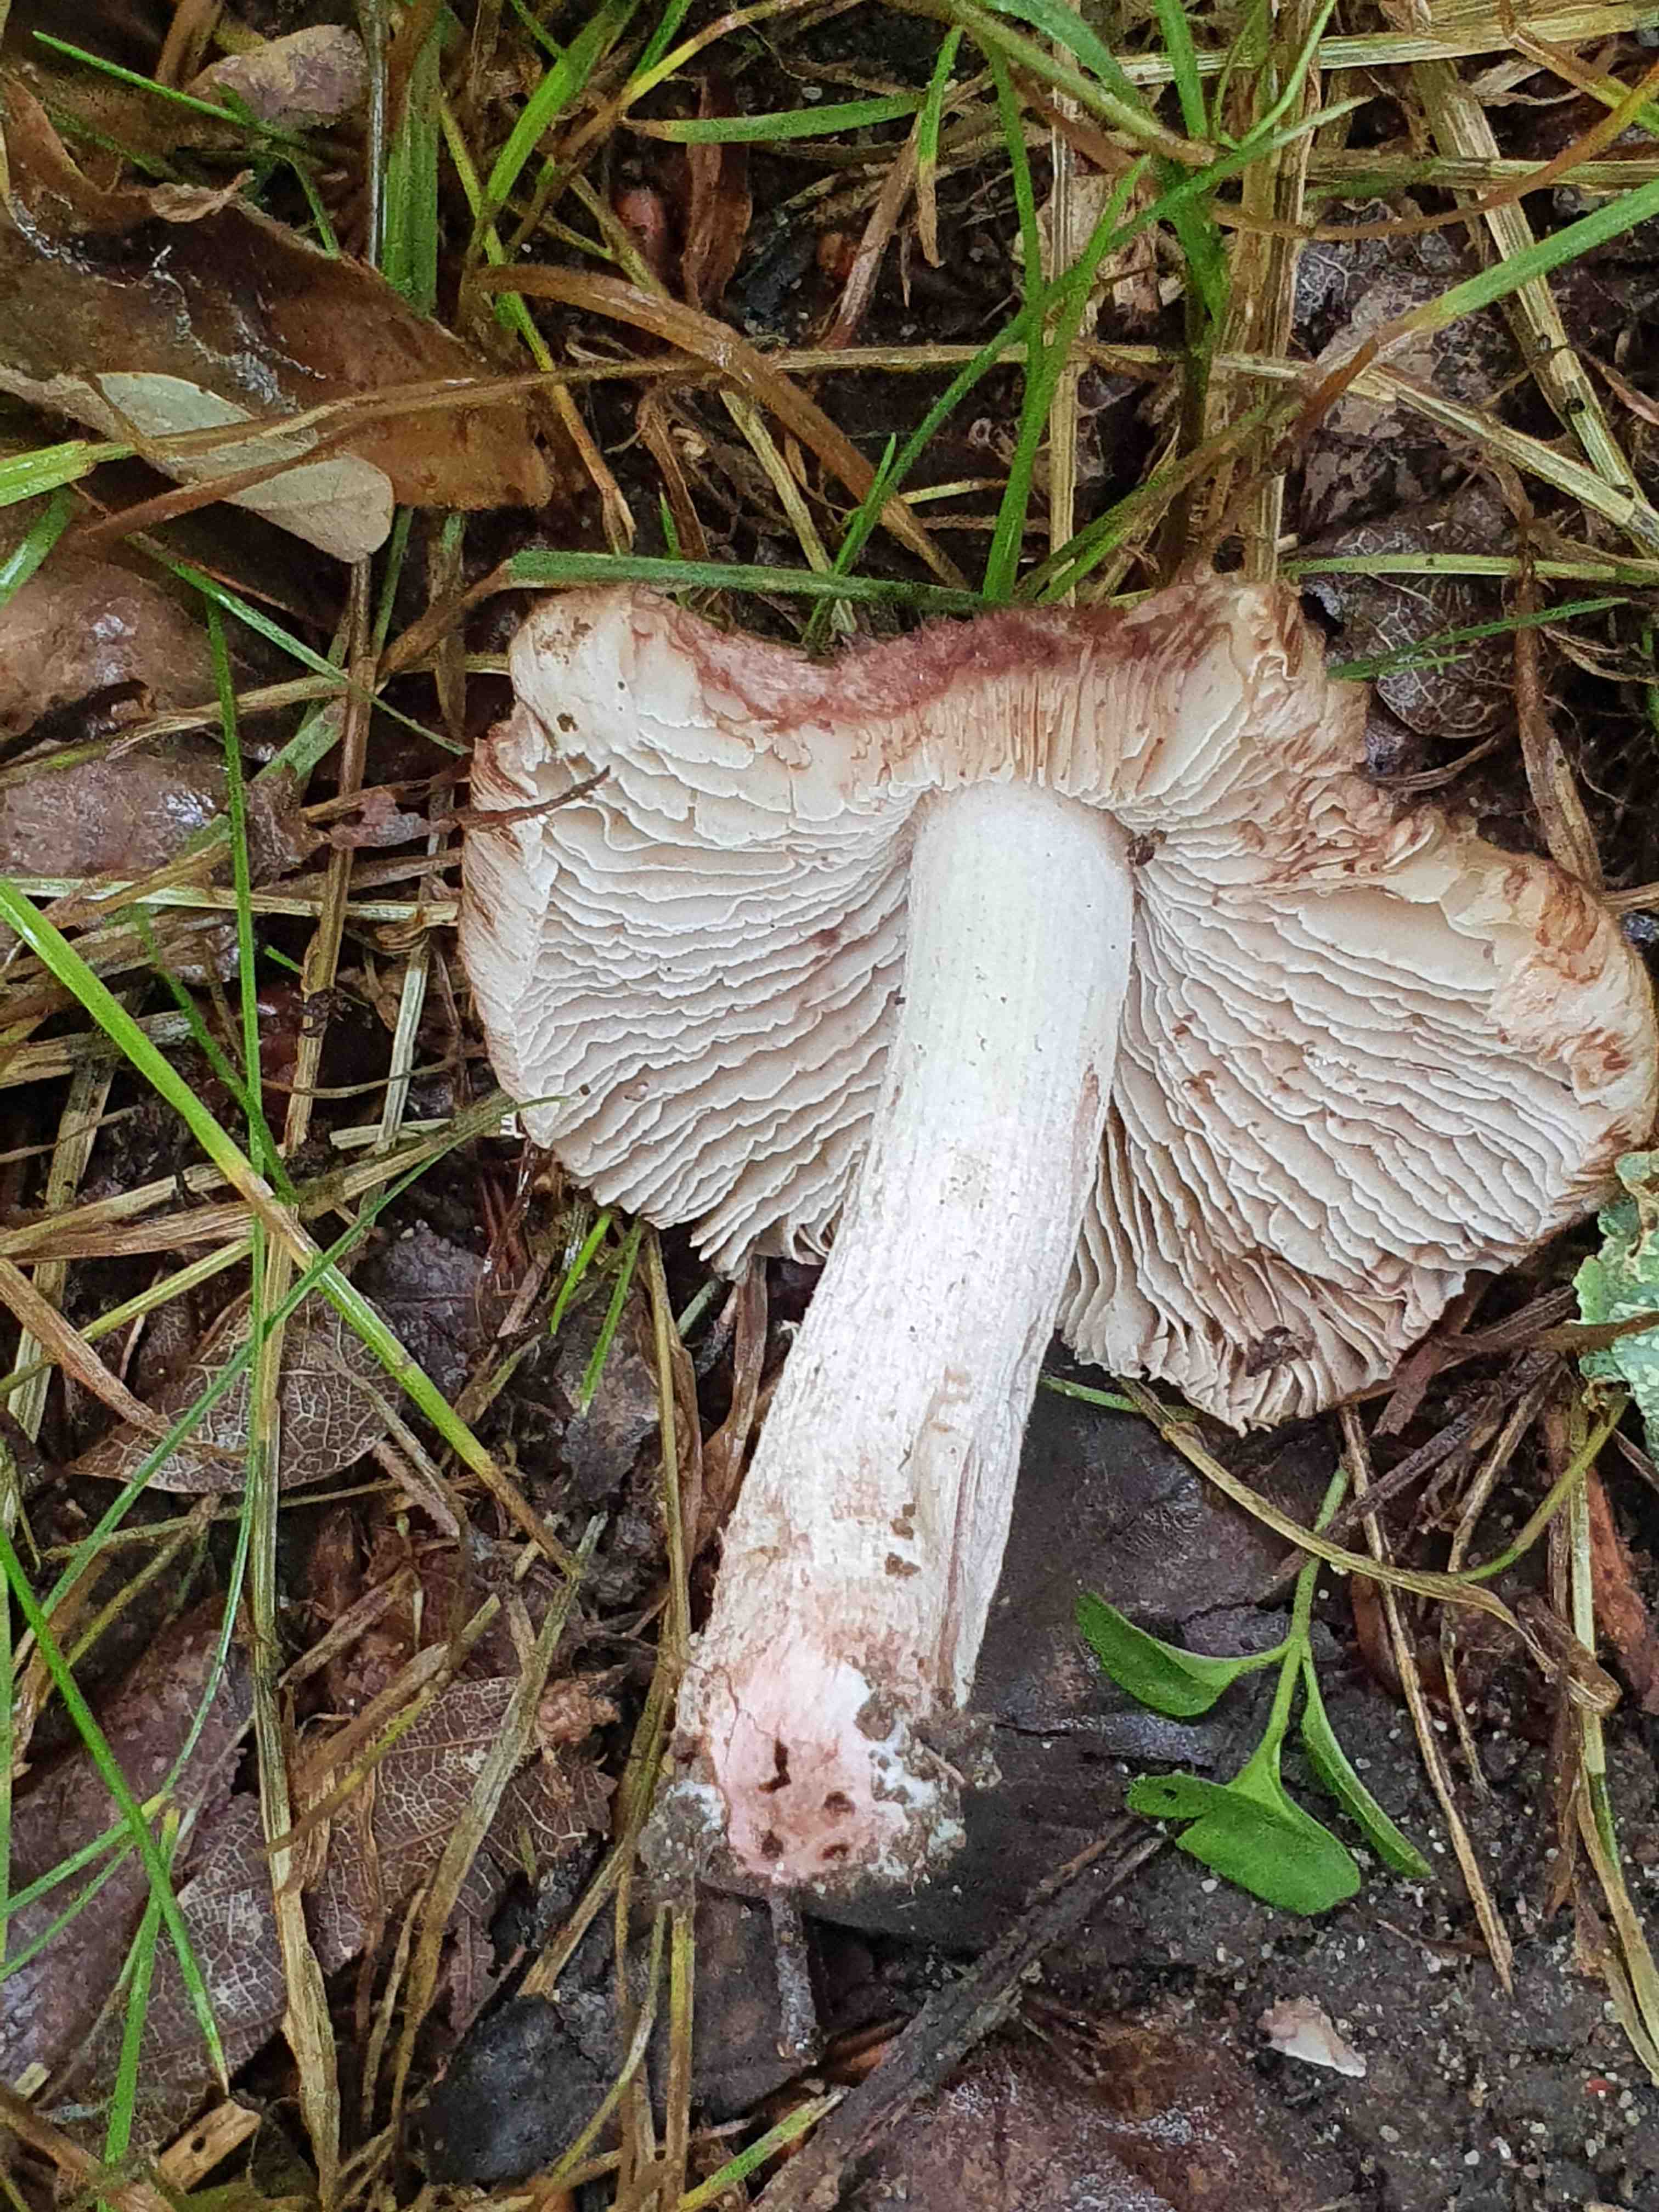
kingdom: Fungi
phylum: Basidiomycota
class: Agaricomycetes
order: Agaricales
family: Inocybaceae
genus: Inosperma
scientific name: Inosperma adaequatum
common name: vinrød trævlhat
